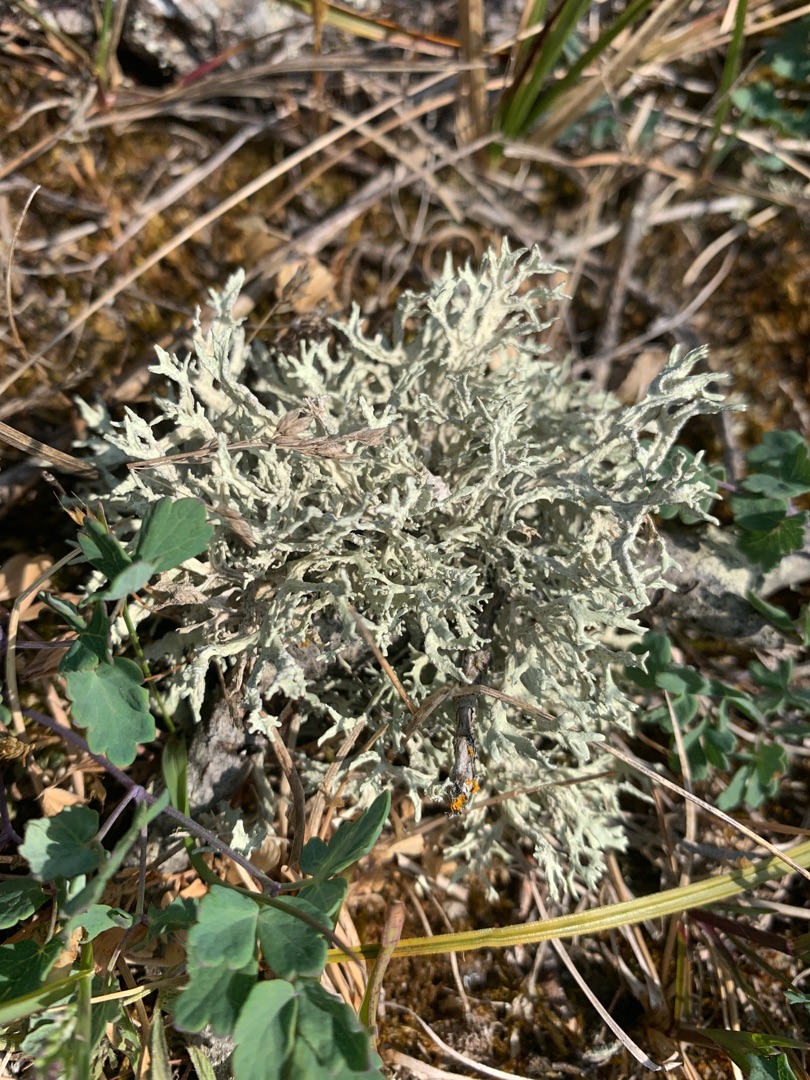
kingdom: Fungi
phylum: Ascomycota
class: Lecanoromycetes
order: Lecanorales
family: Parmeliaceae
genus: Evernia
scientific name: Evernia prunastri
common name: Almindelig slåenlav
